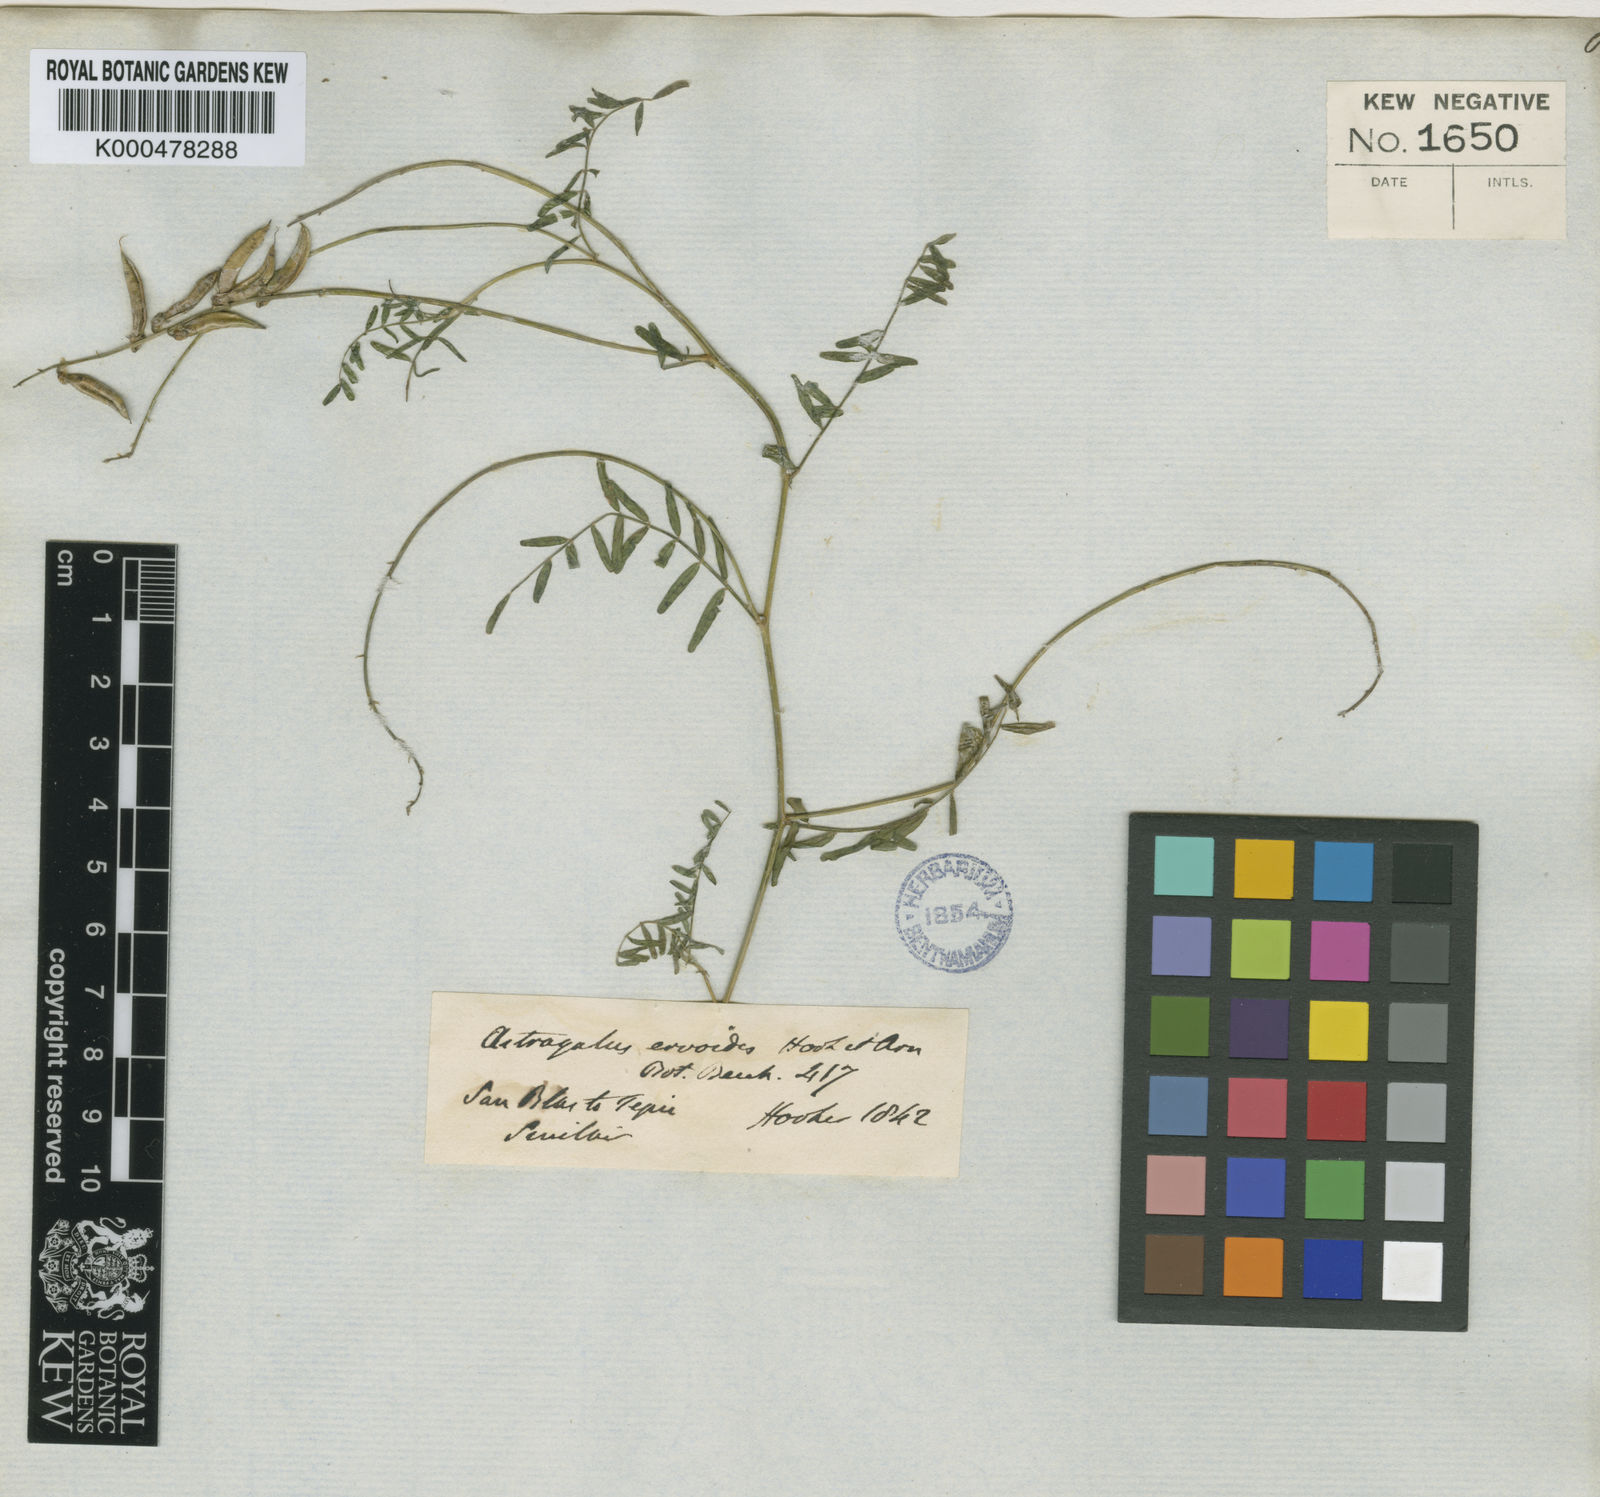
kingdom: Plantae
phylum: Tracheophyta
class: Magnoliopsida
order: Fabales
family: Fabaceae
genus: Astragalus
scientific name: Astragalus ervoides
